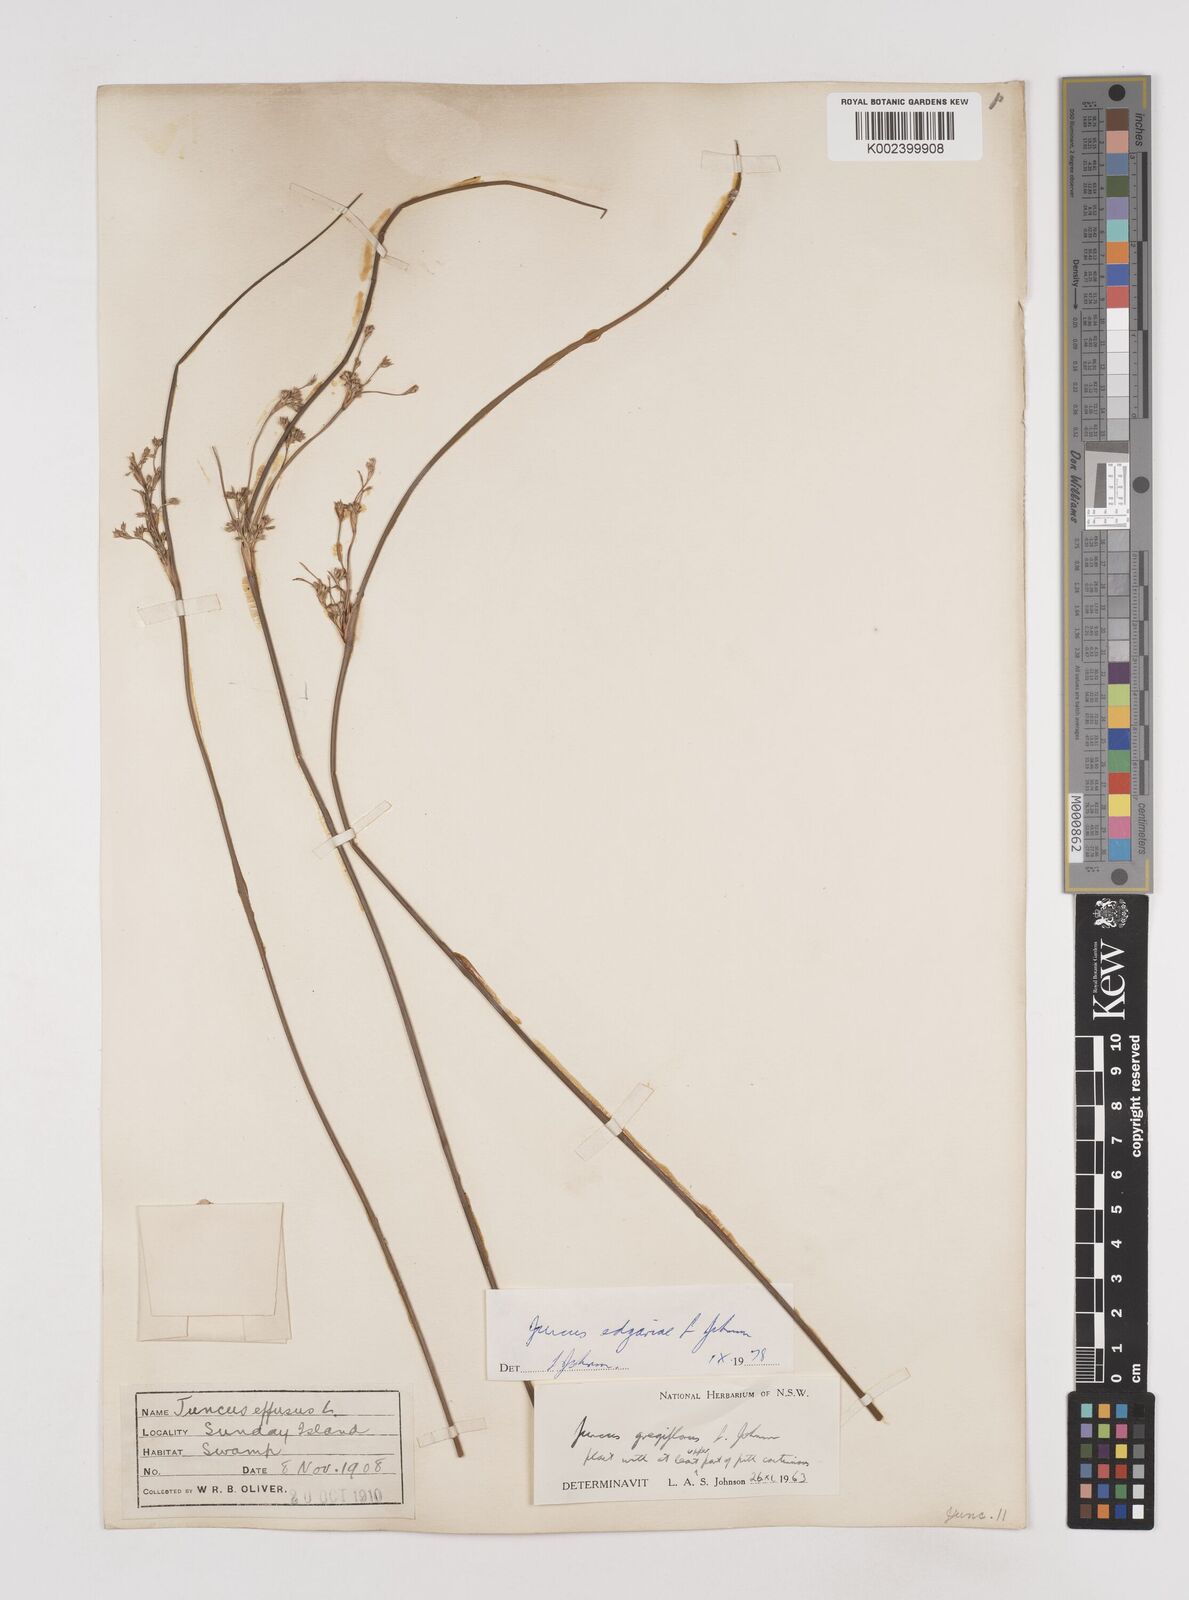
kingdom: Plantae
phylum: Tracheophyta
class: Liliopsida
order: Poales
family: Juncaceae
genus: Juncus
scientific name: Juncus edgariae
